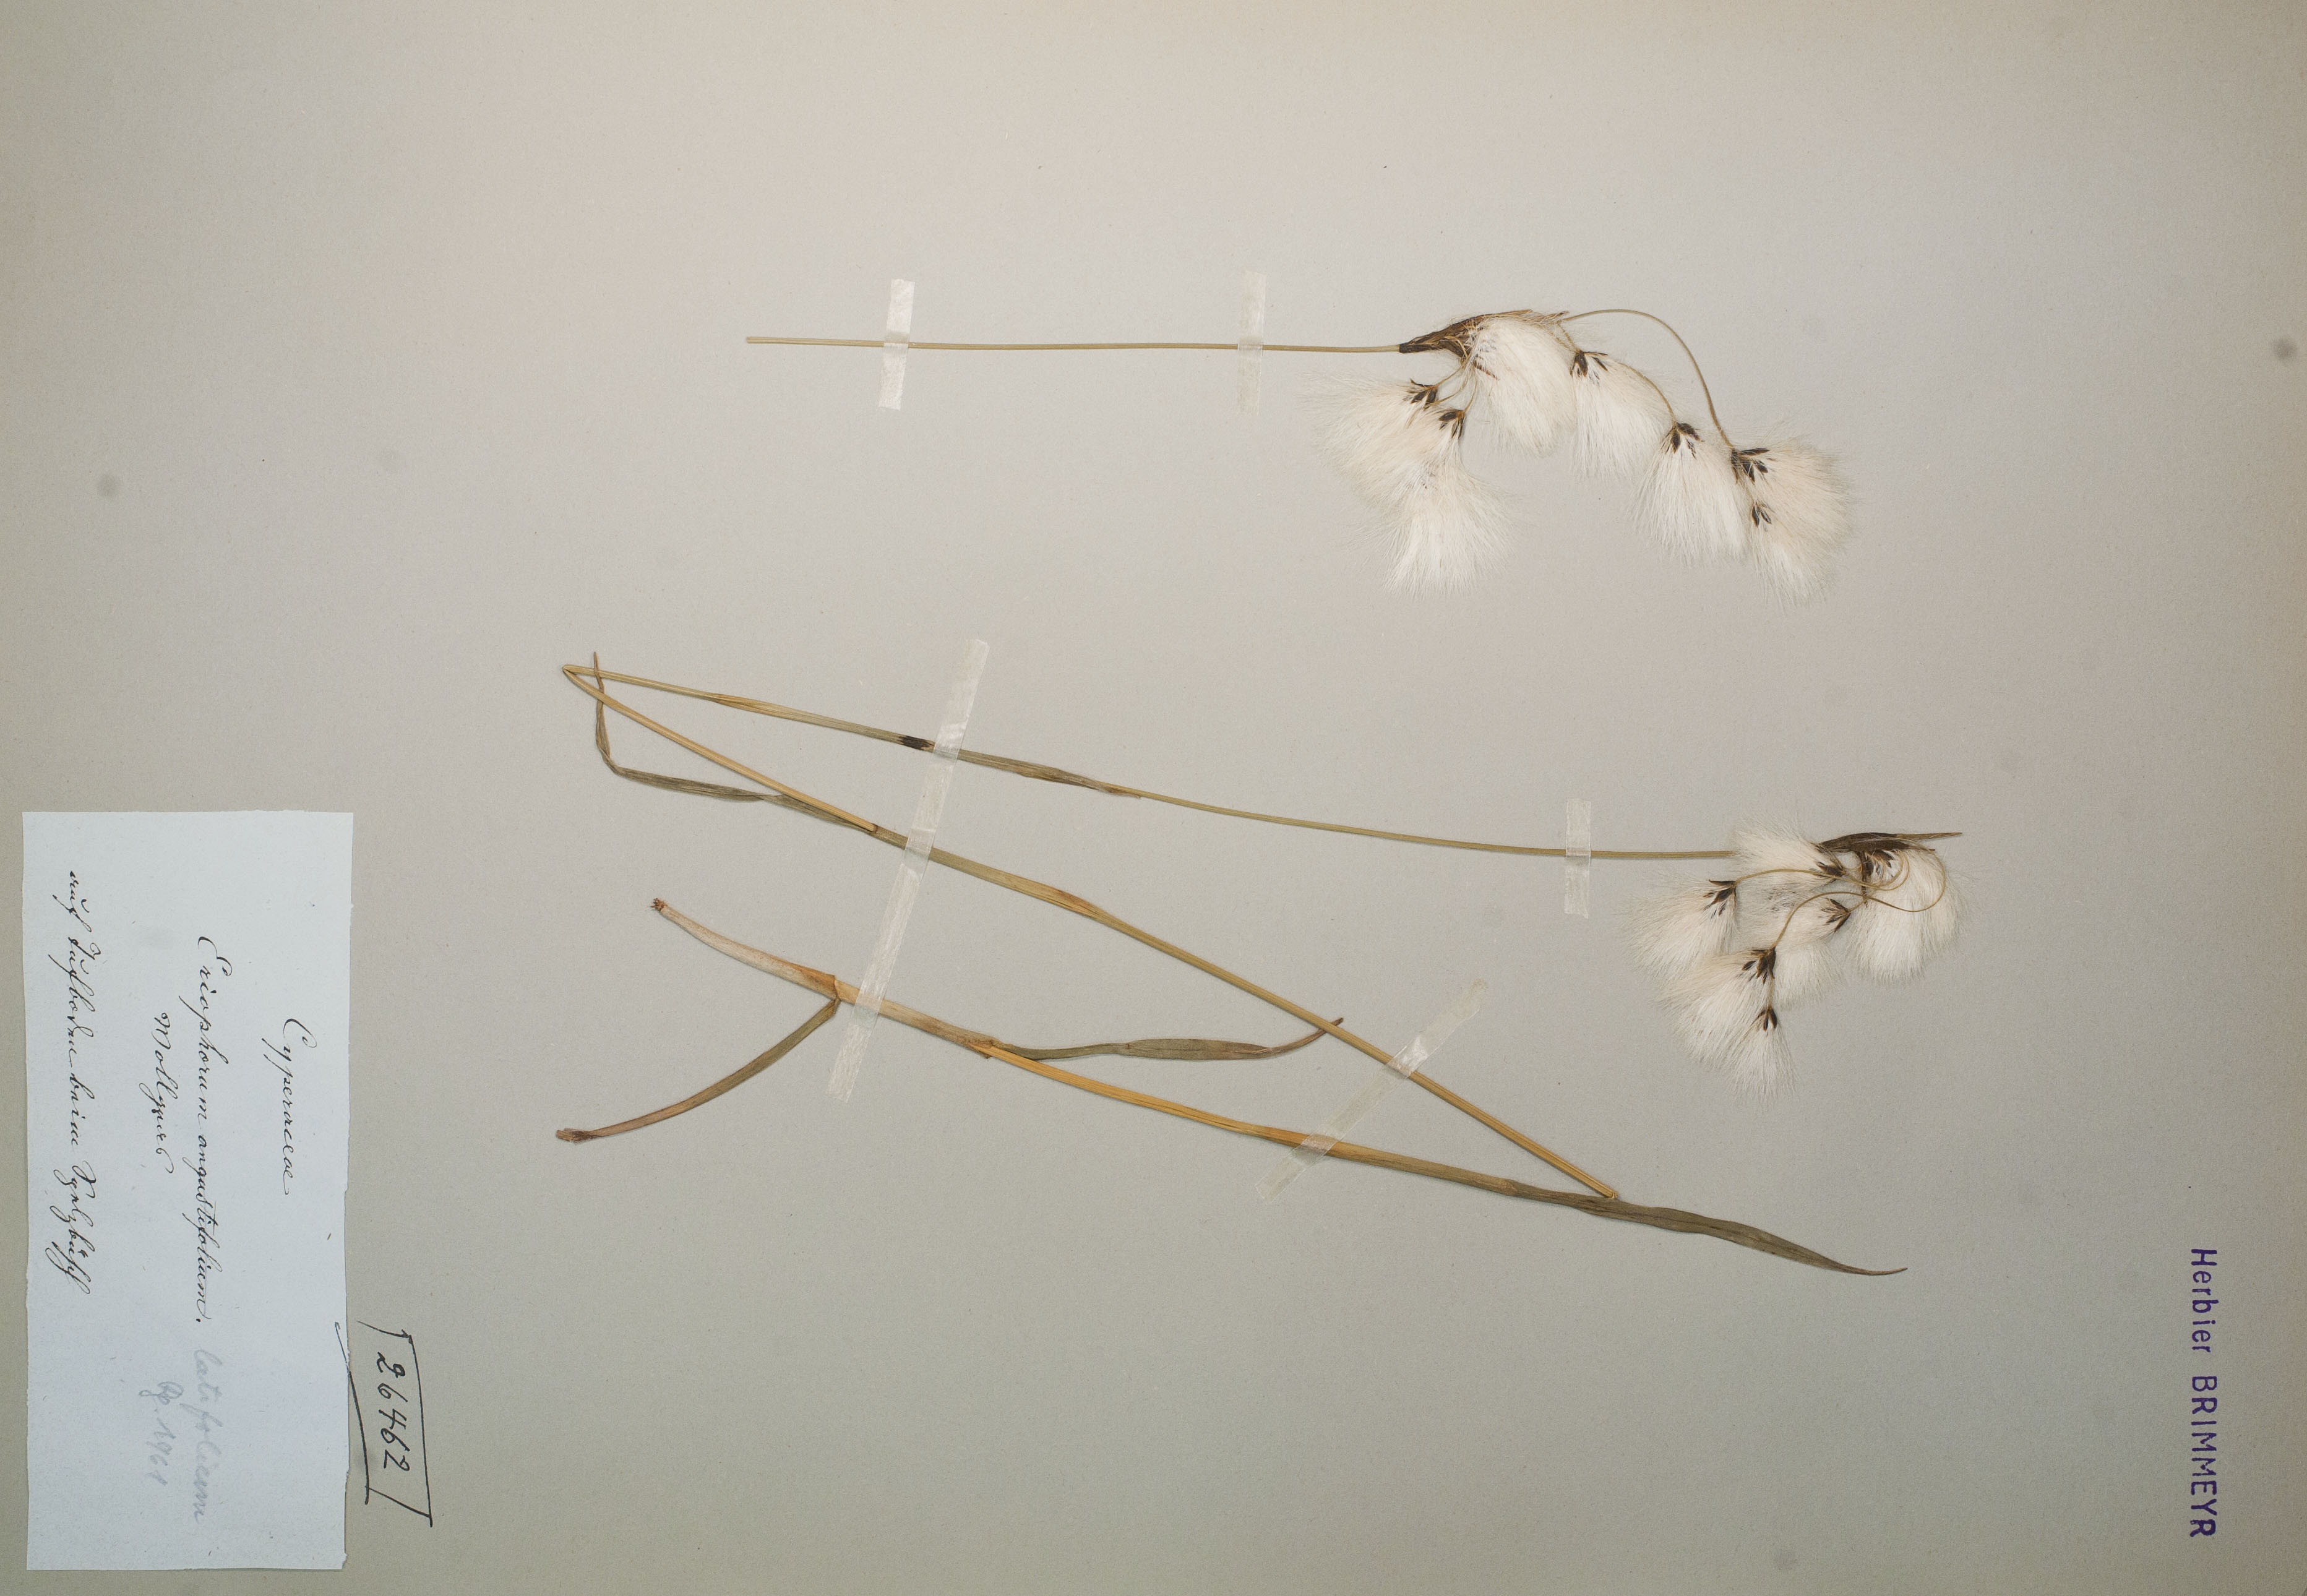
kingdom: Plantae
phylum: Tracheophyta
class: Liliopsida
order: Poales
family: Cyperaceae
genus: Eriophorum
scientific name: Eriophorum latifolium
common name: Broad-leaved cottongrass
